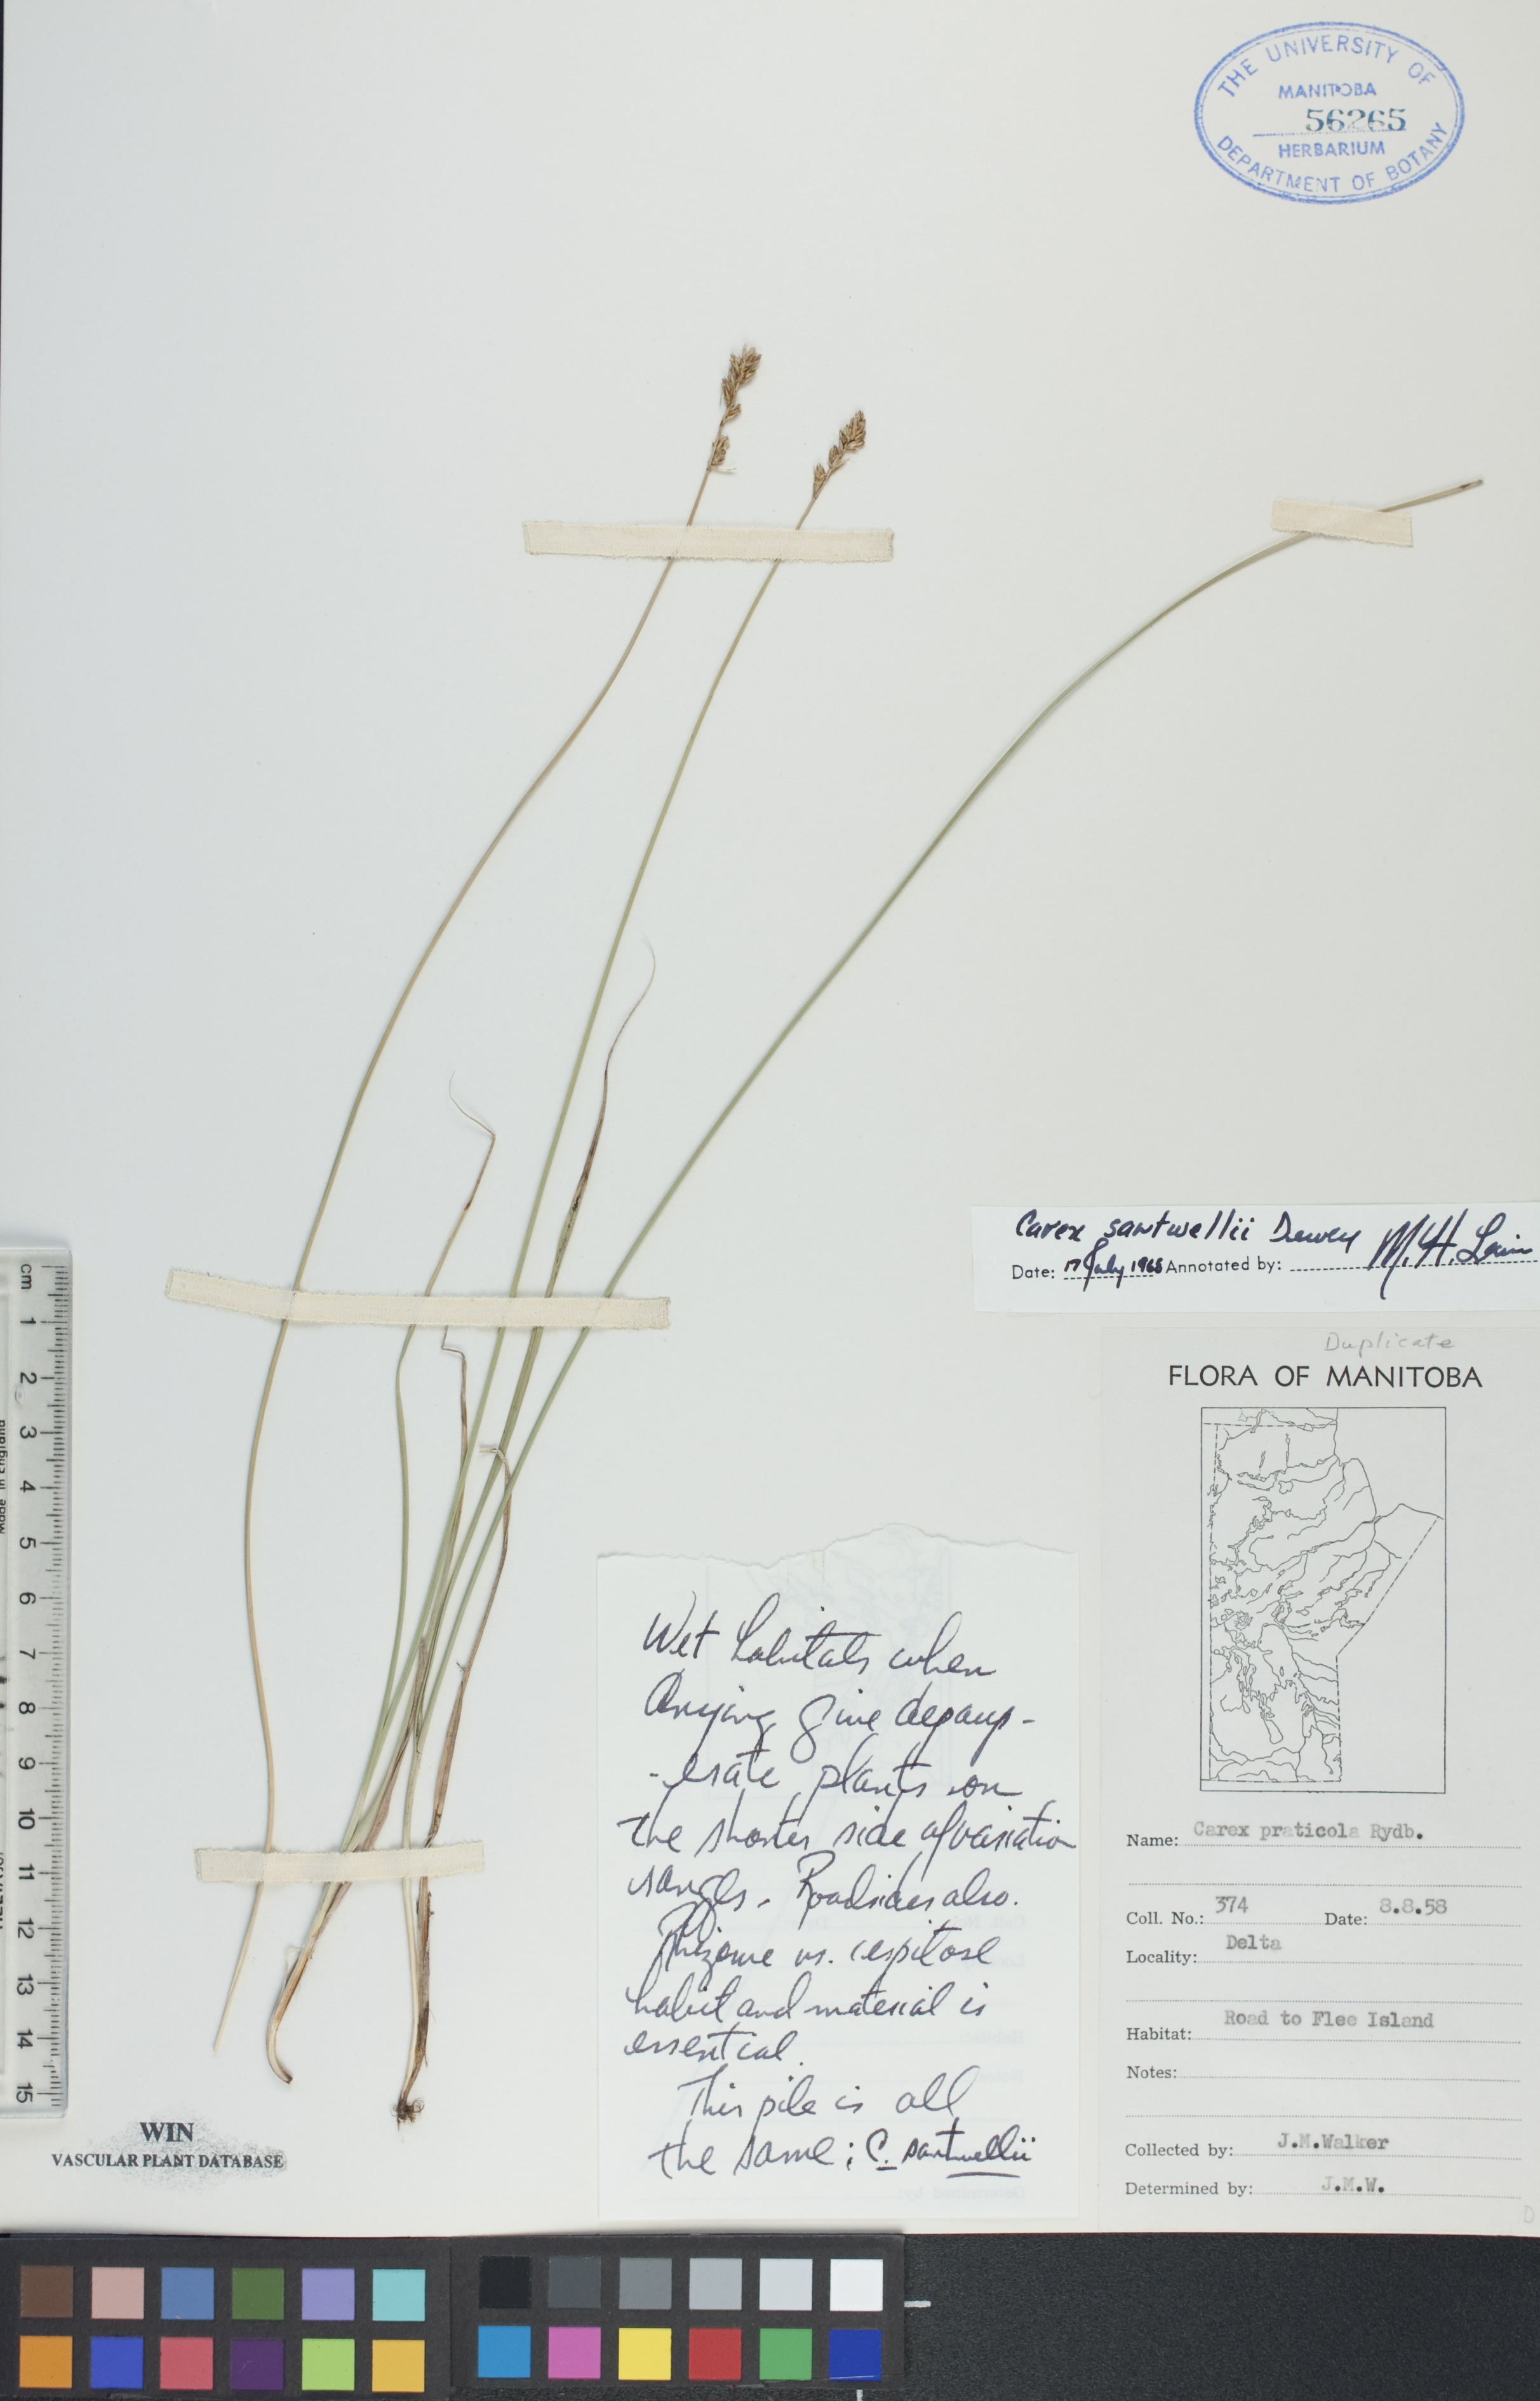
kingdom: Plantae
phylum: Tracheophyta
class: Liliopsida
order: Poales
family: Cyperaceae
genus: Carex
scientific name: Carex sartwellii
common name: Sartwell's sedge
